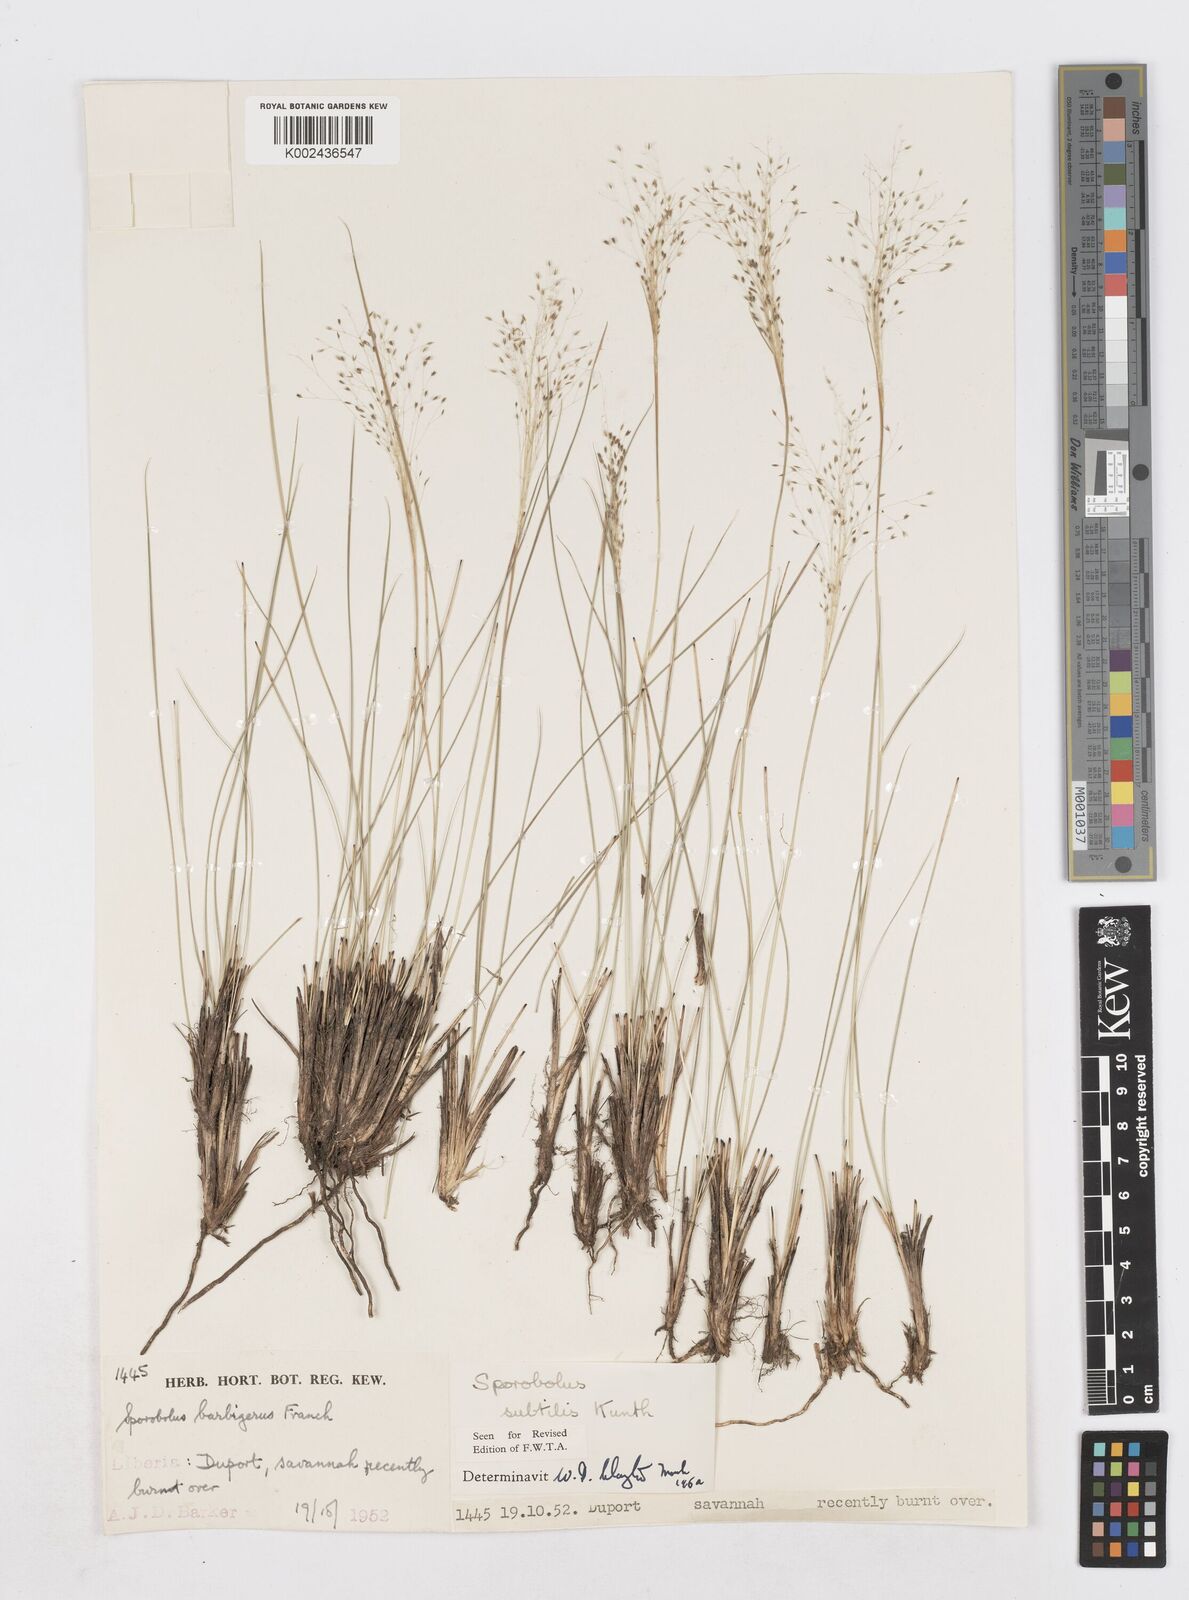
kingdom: Plantae
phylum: Tracheophyta
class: Liliopsida
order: Poales
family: Poaceae
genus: Sporobolus
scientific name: Sporobolus subtilis
